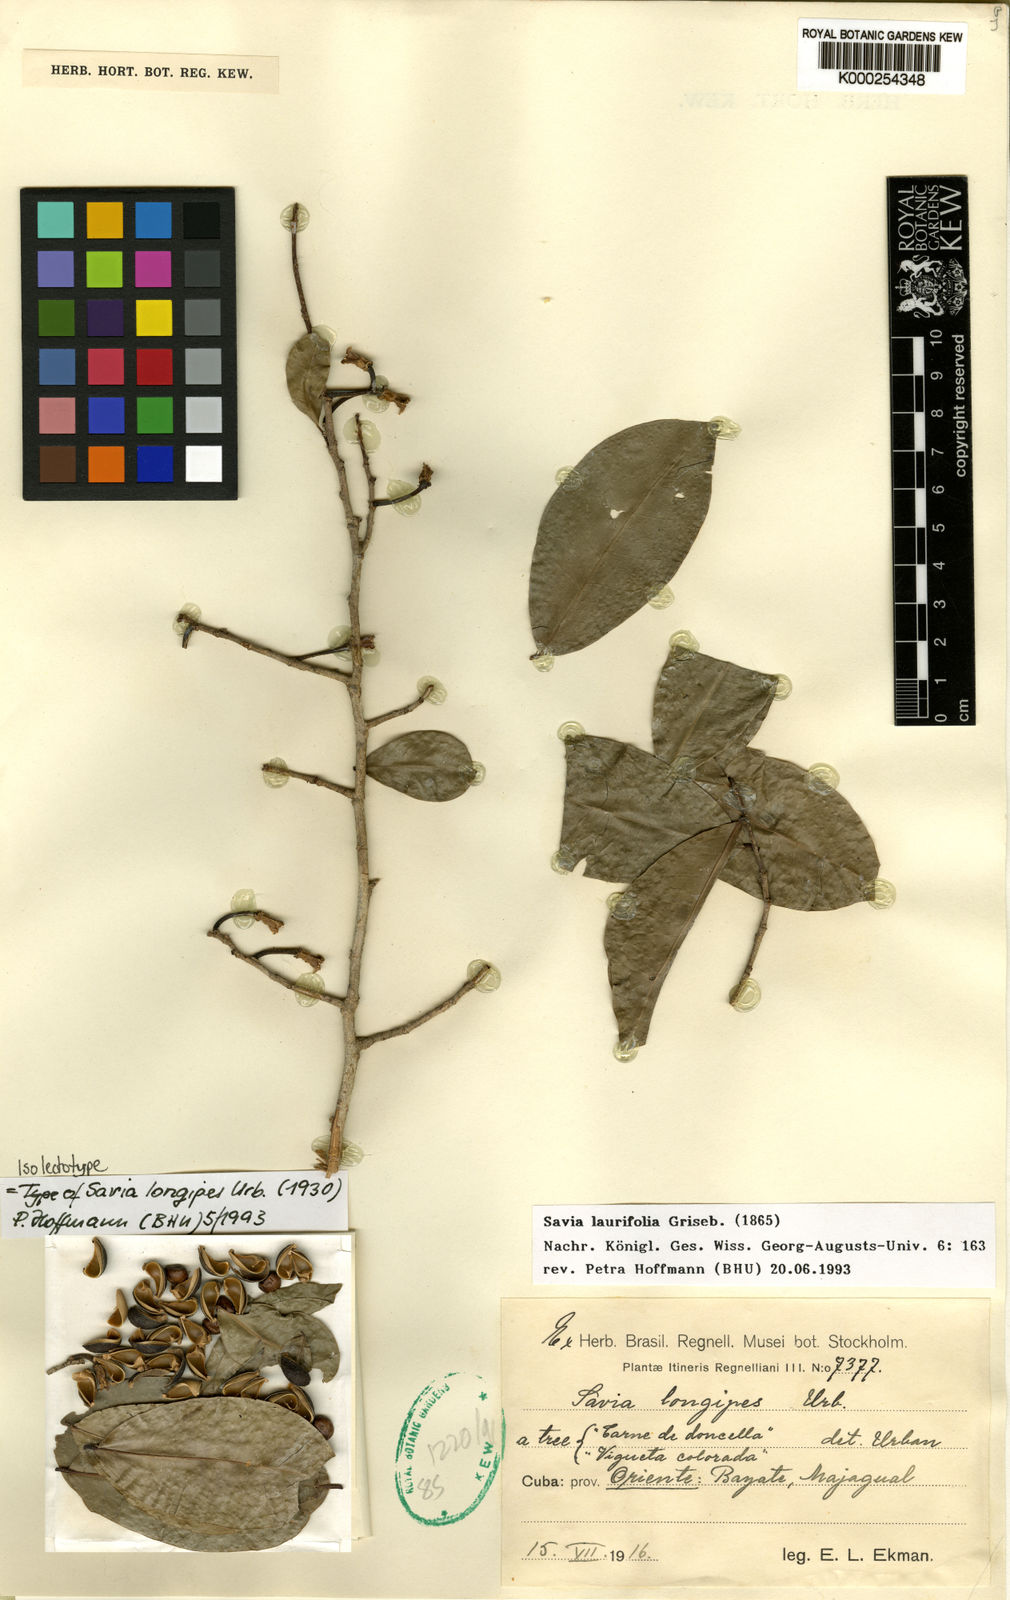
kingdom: Plantae
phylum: Tracheophyta
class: Magnoliopsida
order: Malpighiales
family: Phyllanthaceae
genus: Heterosavia
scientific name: Heterosavia laurifolia
